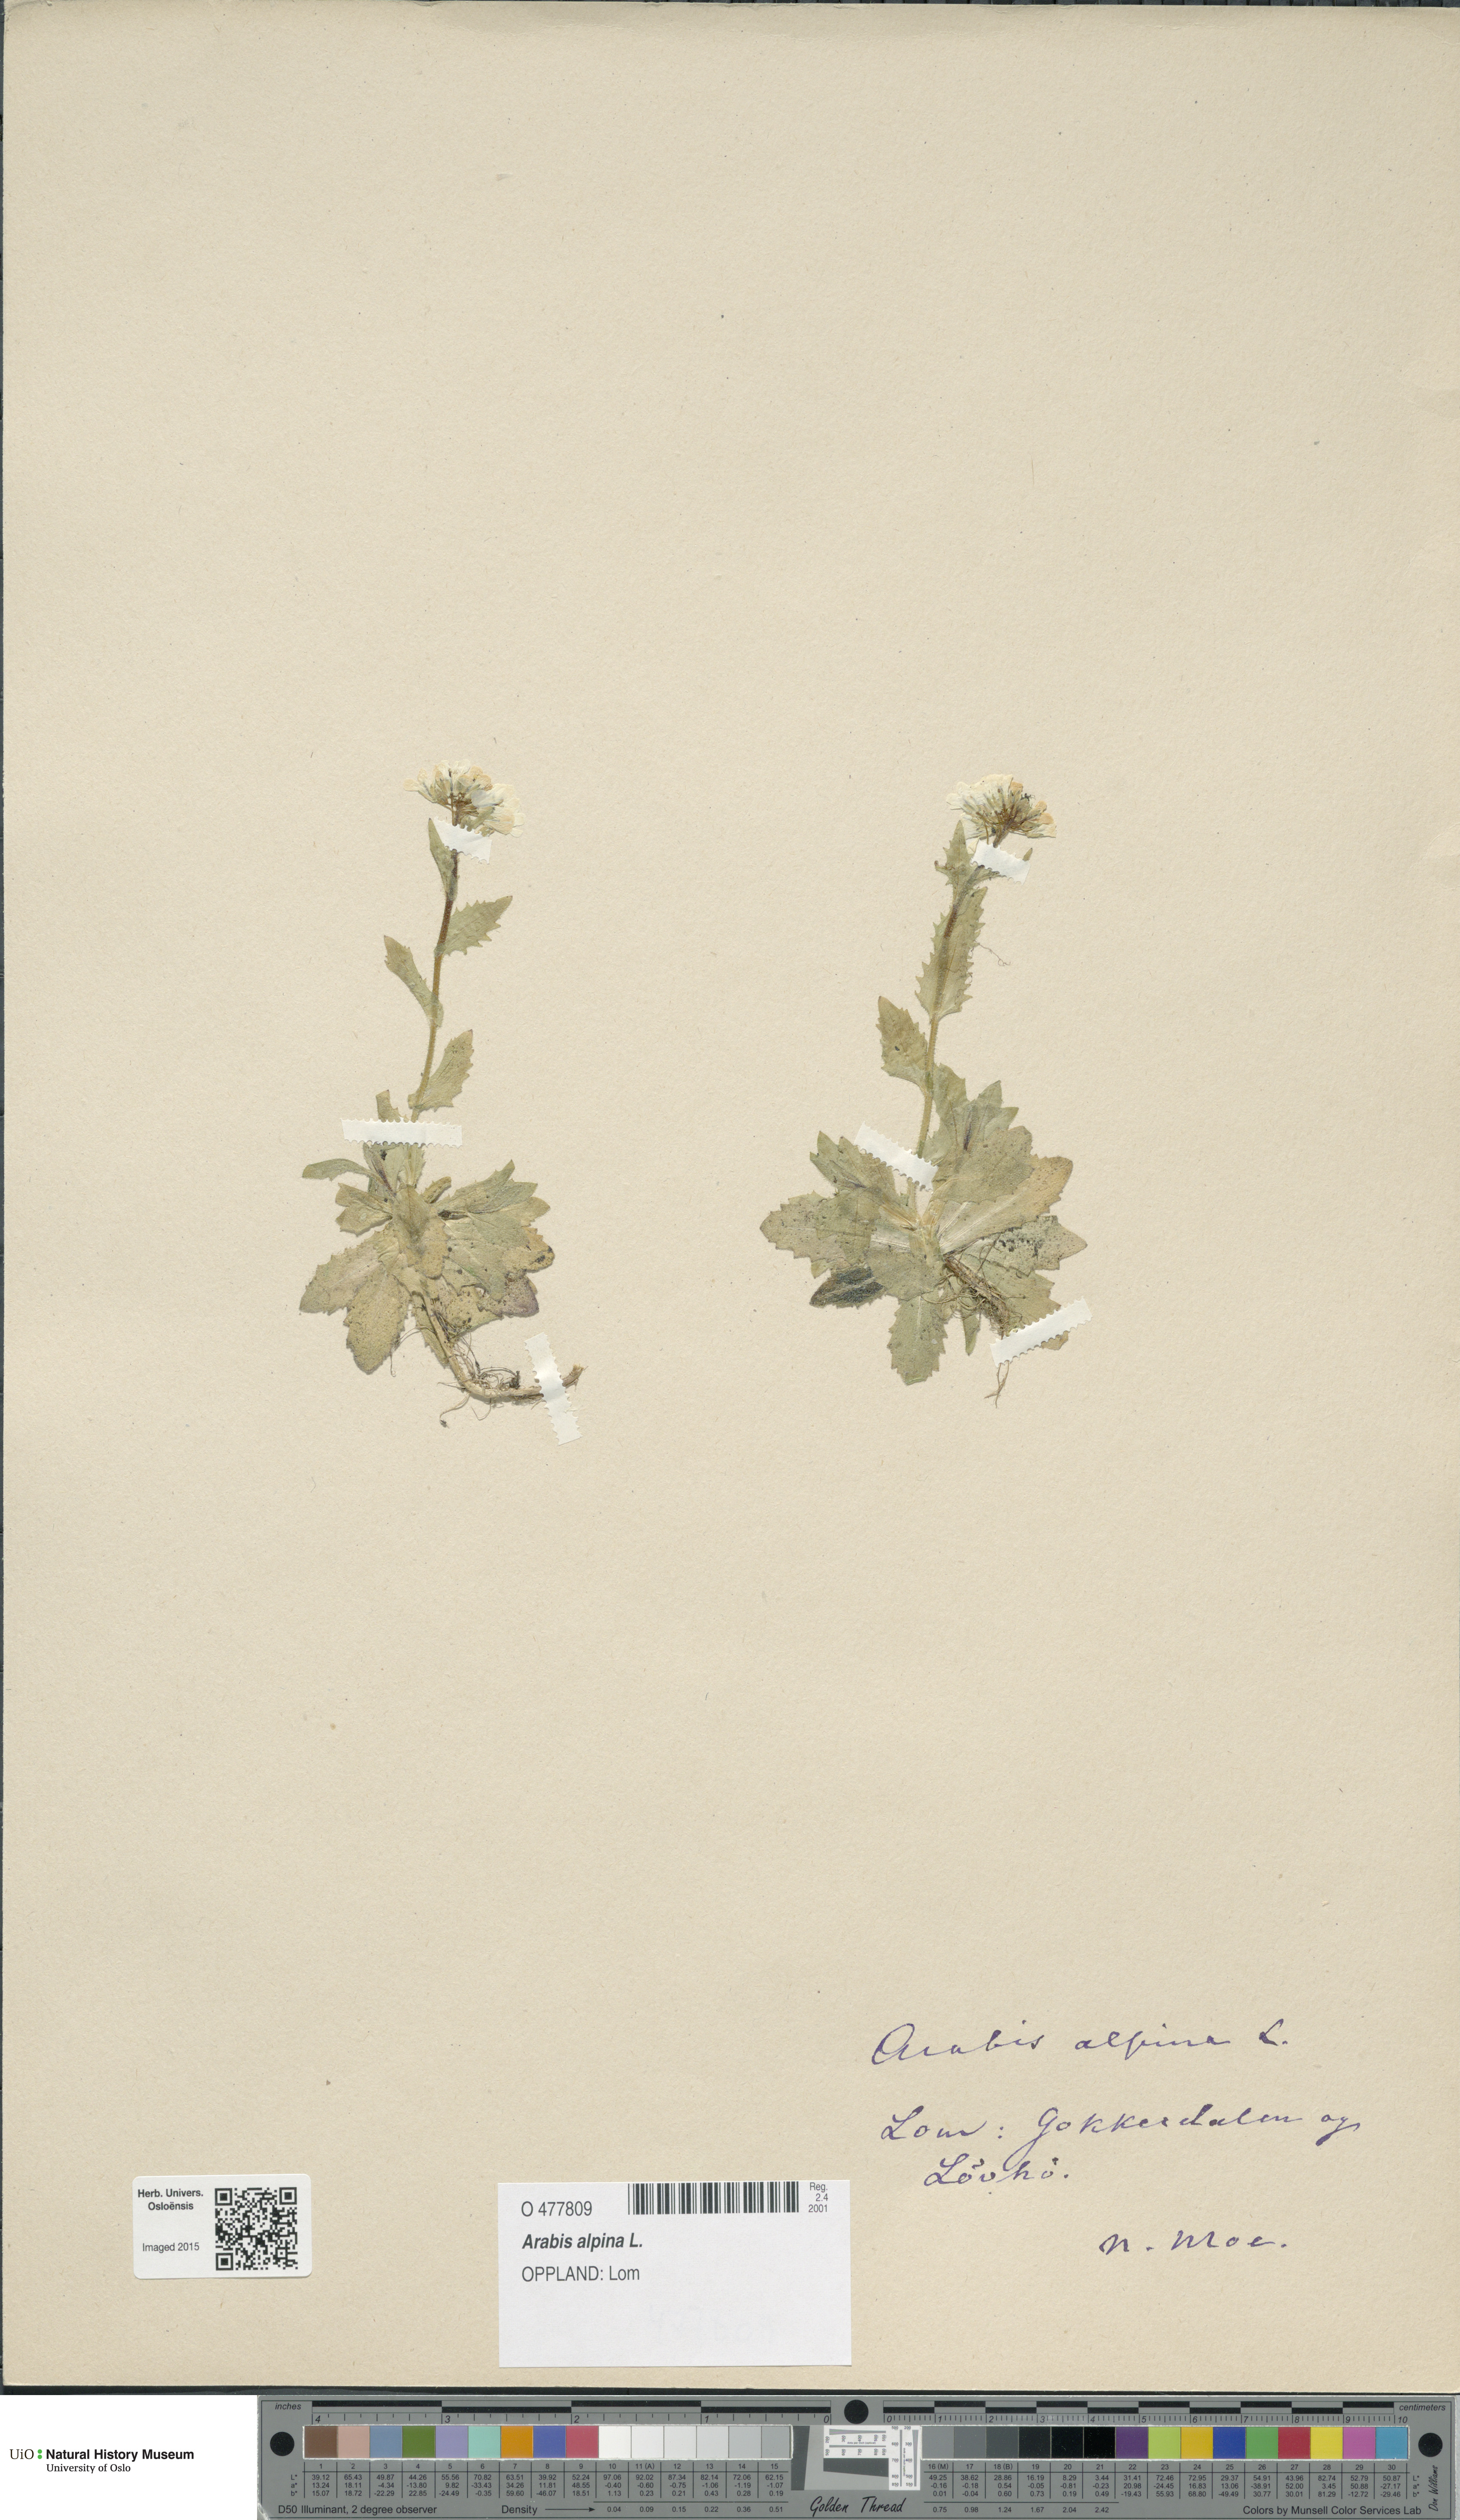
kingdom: Plantae
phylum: Tracheophyta
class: Magnoliopsida
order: Brassicales
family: Brassicaceae
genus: Arabis
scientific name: Arabis alpina
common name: Alpine rock-cress
